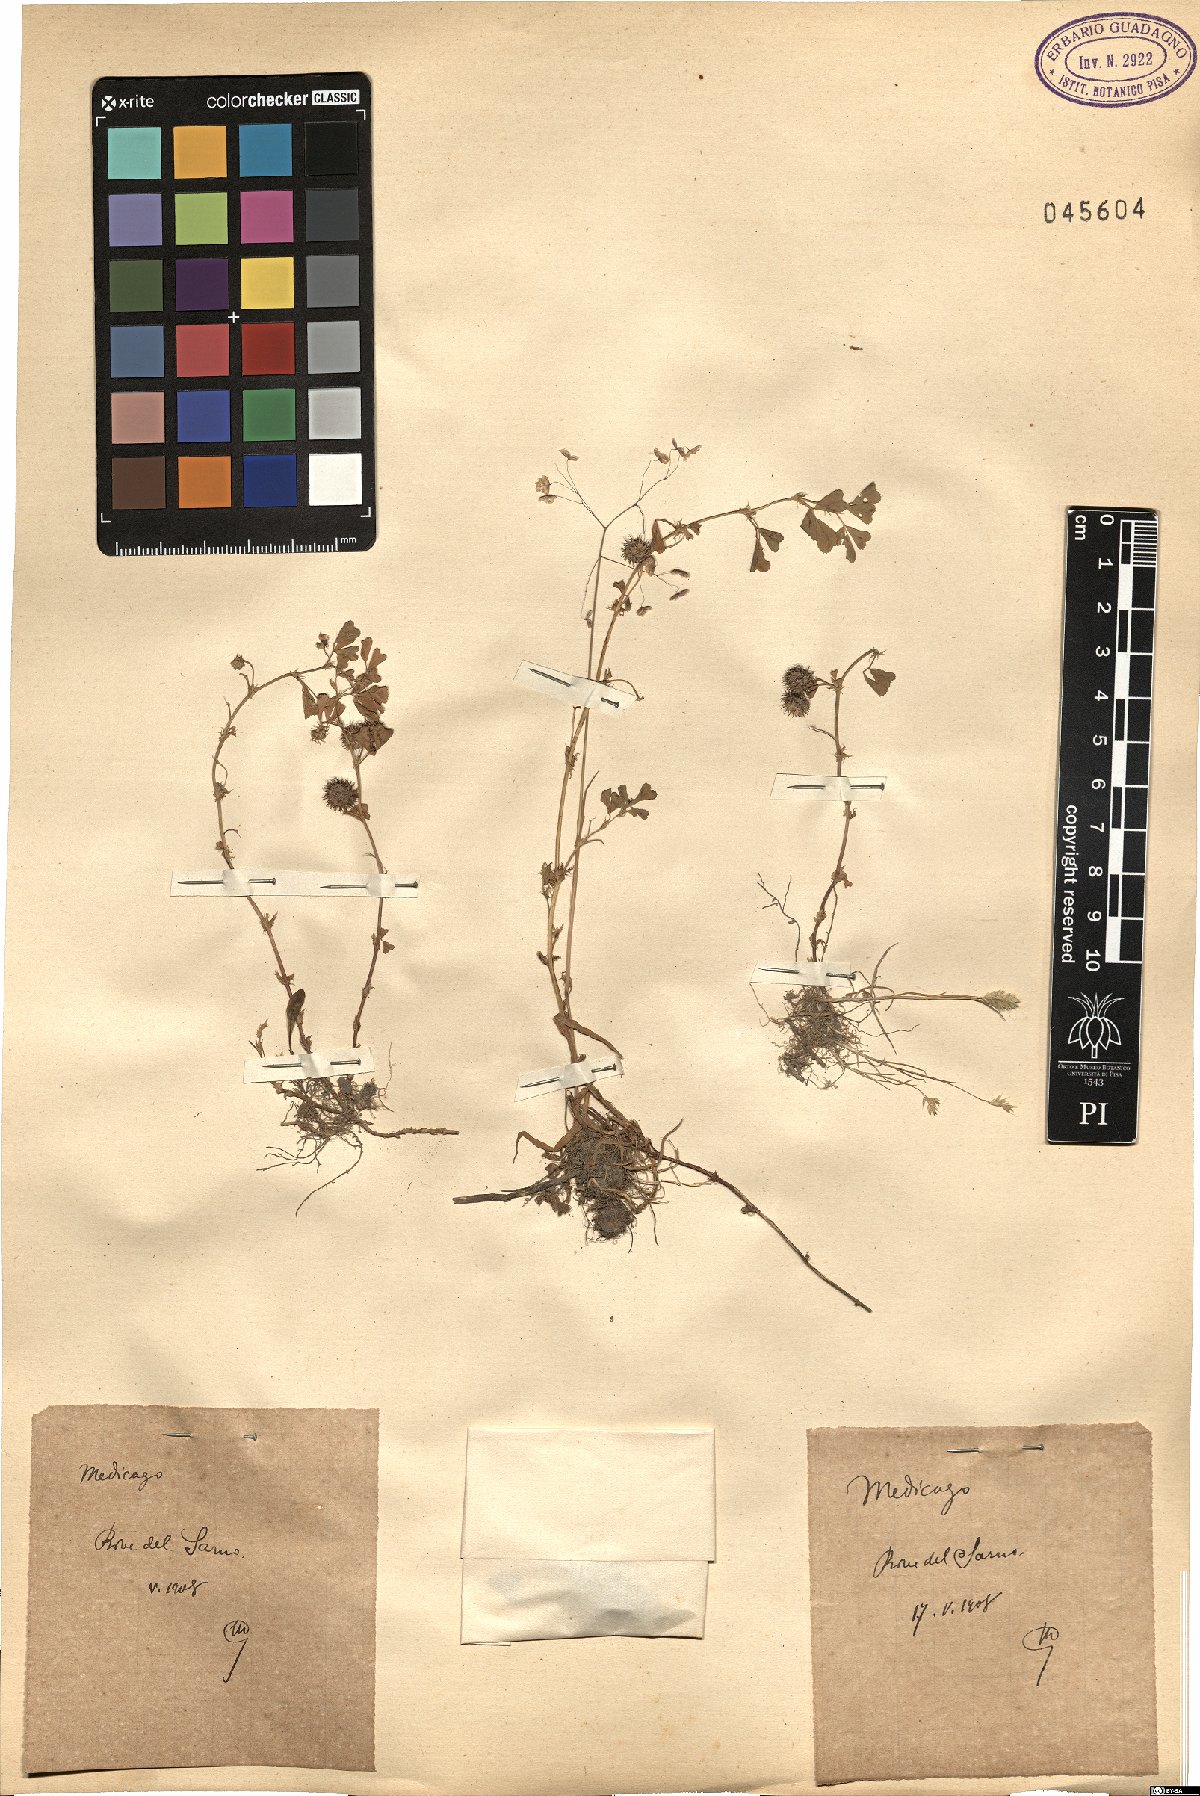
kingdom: Plantae
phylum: Tracheophyta
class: Magnoliopsida
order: Fabales
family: Fabaceae
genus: Medicago
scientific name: Medicago
